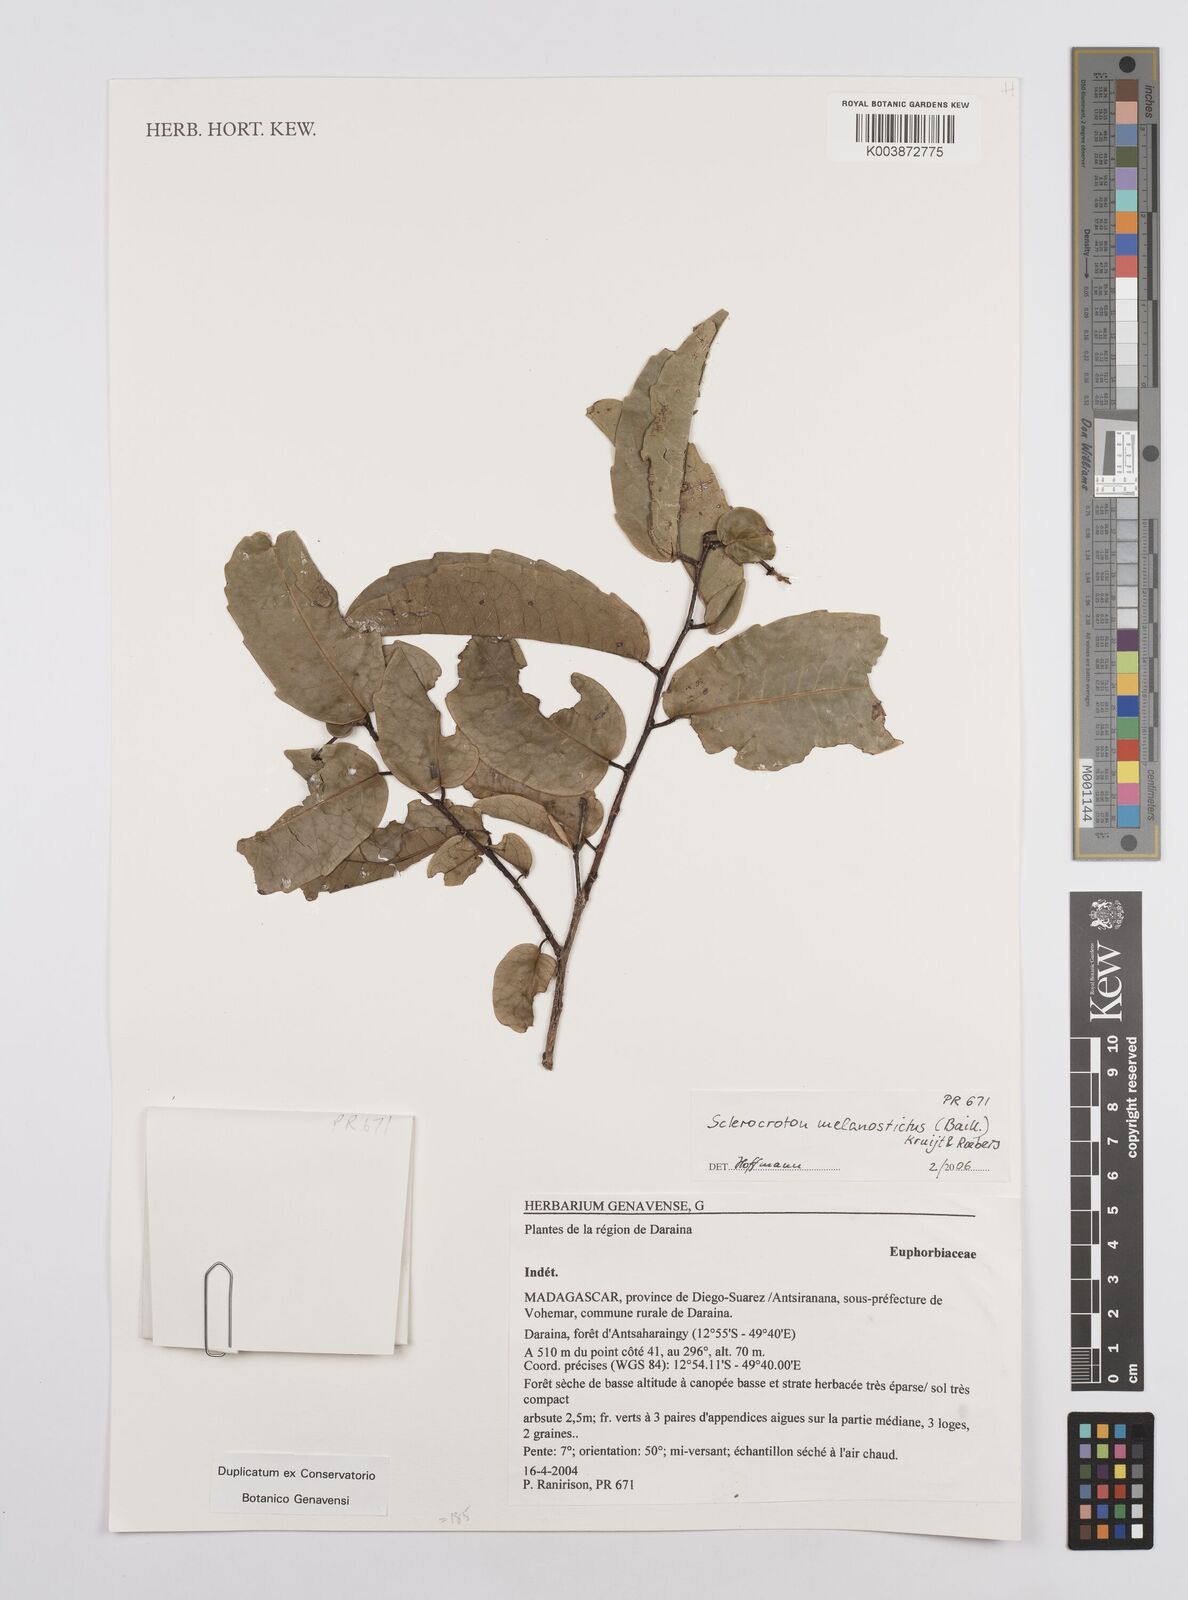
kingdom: Plantae
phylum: Tracheophyta
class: Magnoliopsida
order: Malpighiales
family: Euphorbiaceae
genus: Sclerocroton
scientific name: Sclerocroton melanostictus
